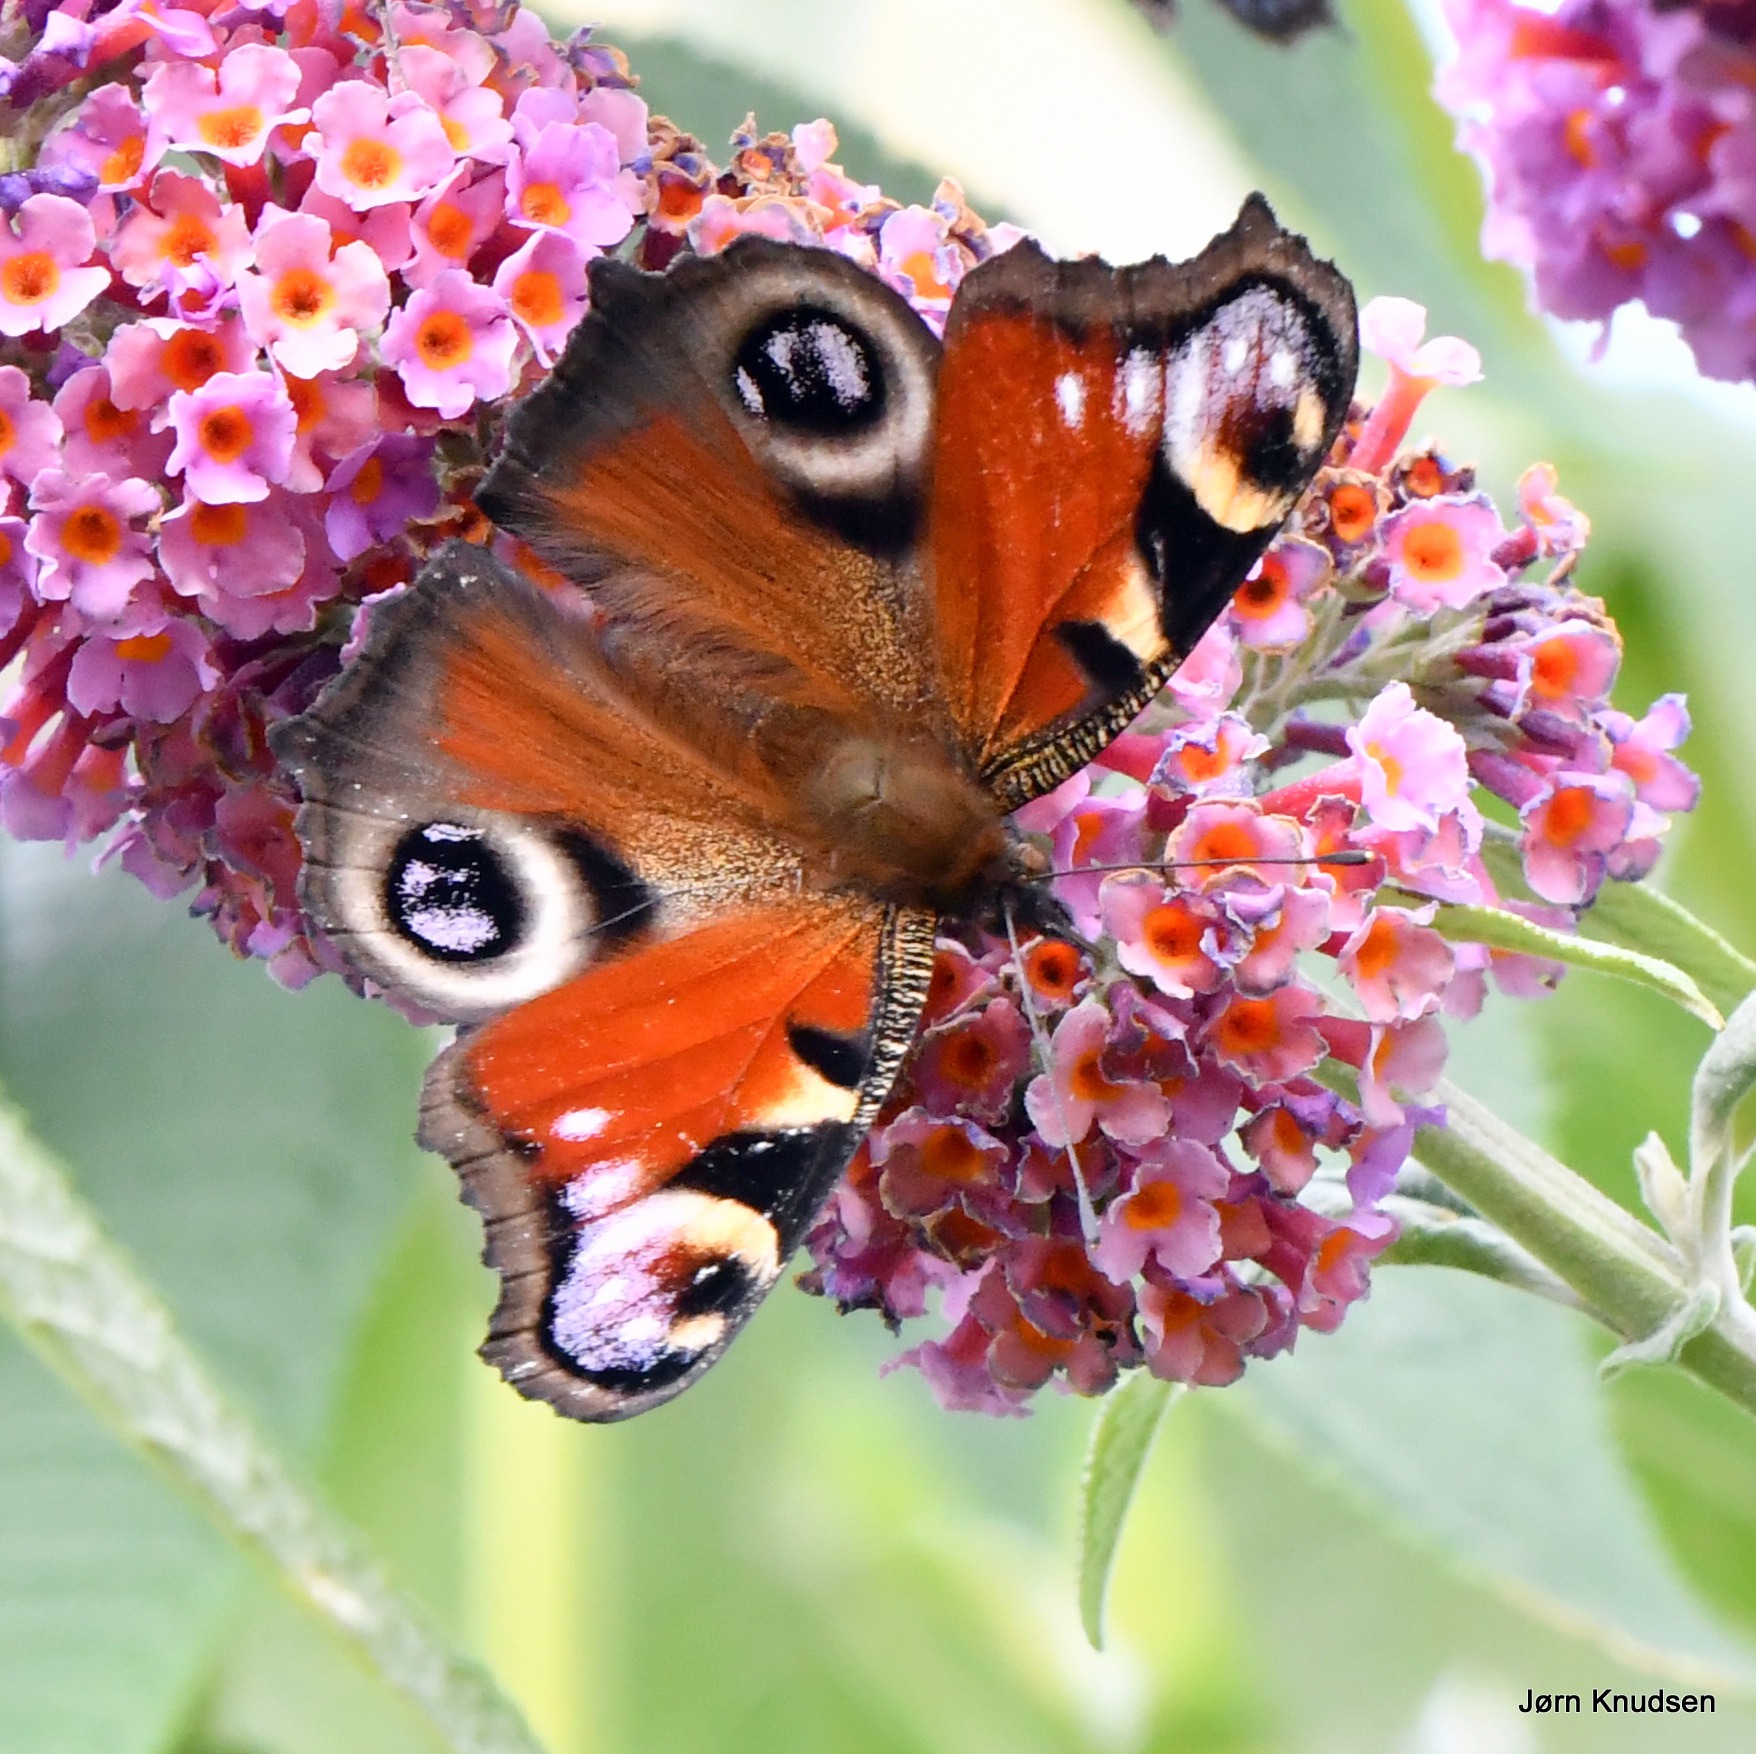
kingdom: Animalia
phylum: Arthropoda
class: Insecta
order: Lepidoptera
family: Nymphalidae
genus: Aglais
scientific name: Aglais io
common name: Dagpåfugleøje
